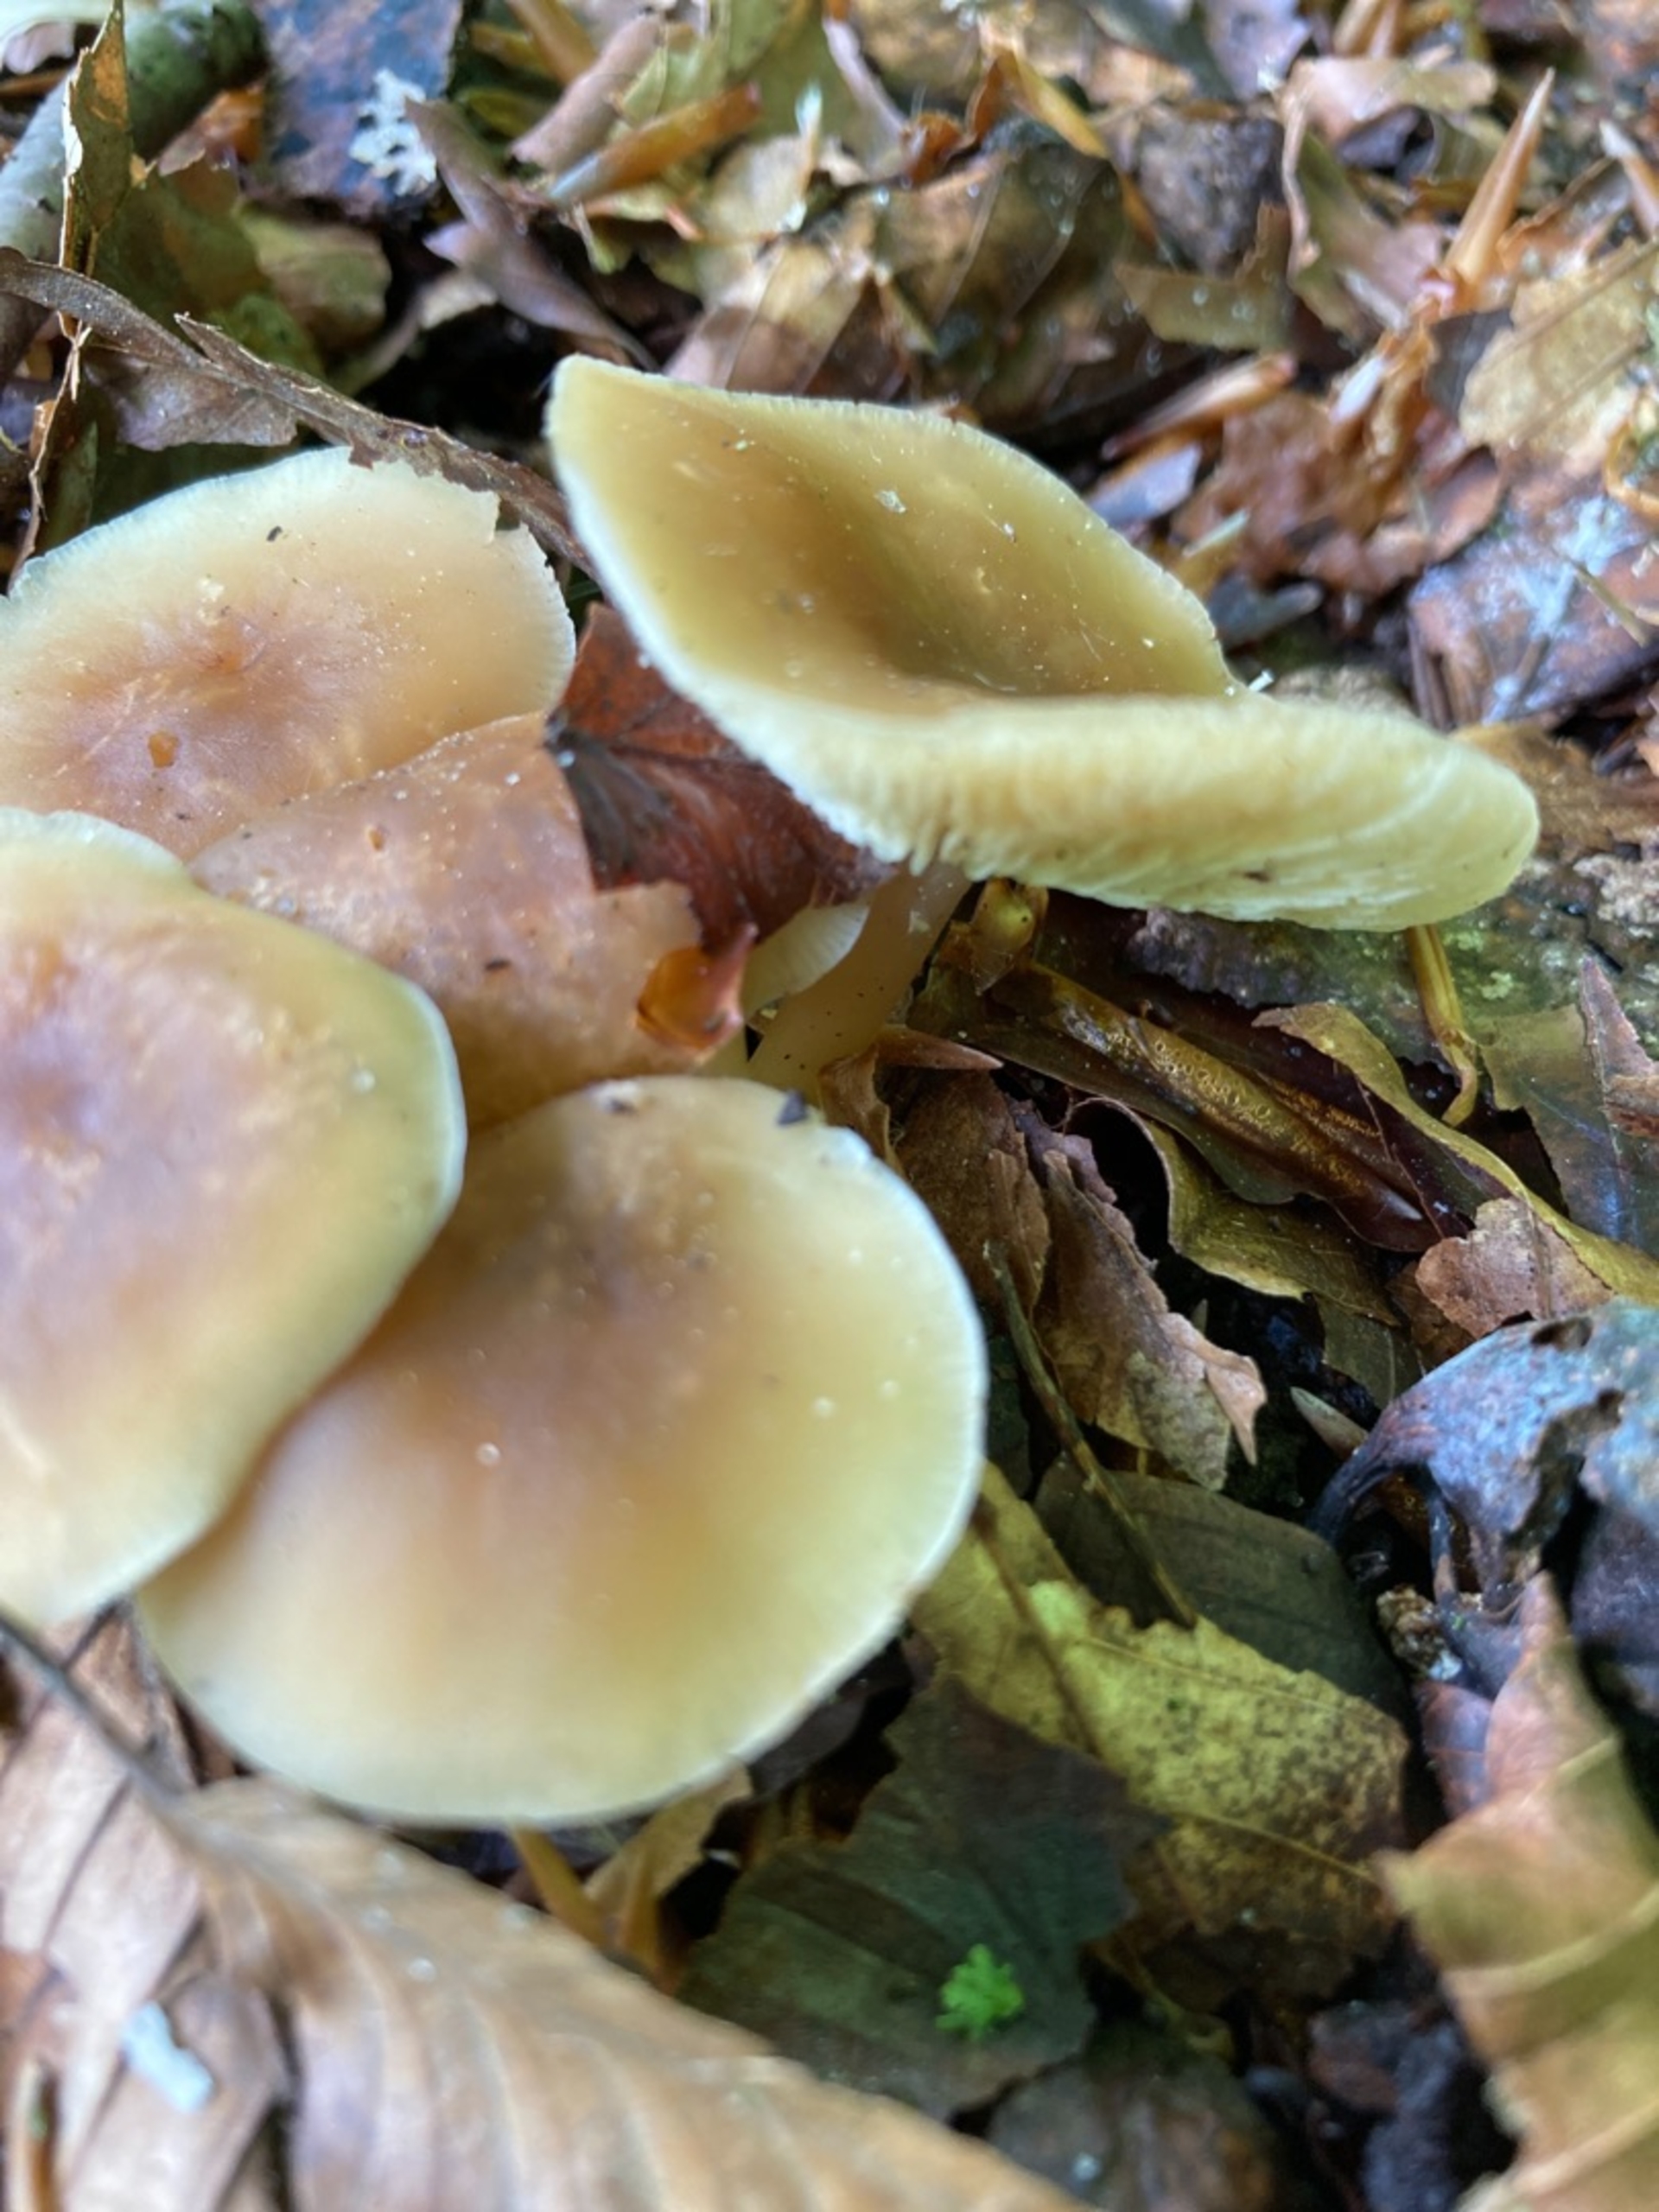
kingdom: Fungi
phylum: Basidiomycota
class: Agaricomycetes
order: Agaricales
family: Omphalotaceae
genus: Gymnopus
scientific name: Gymnopus
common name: Fladhat
